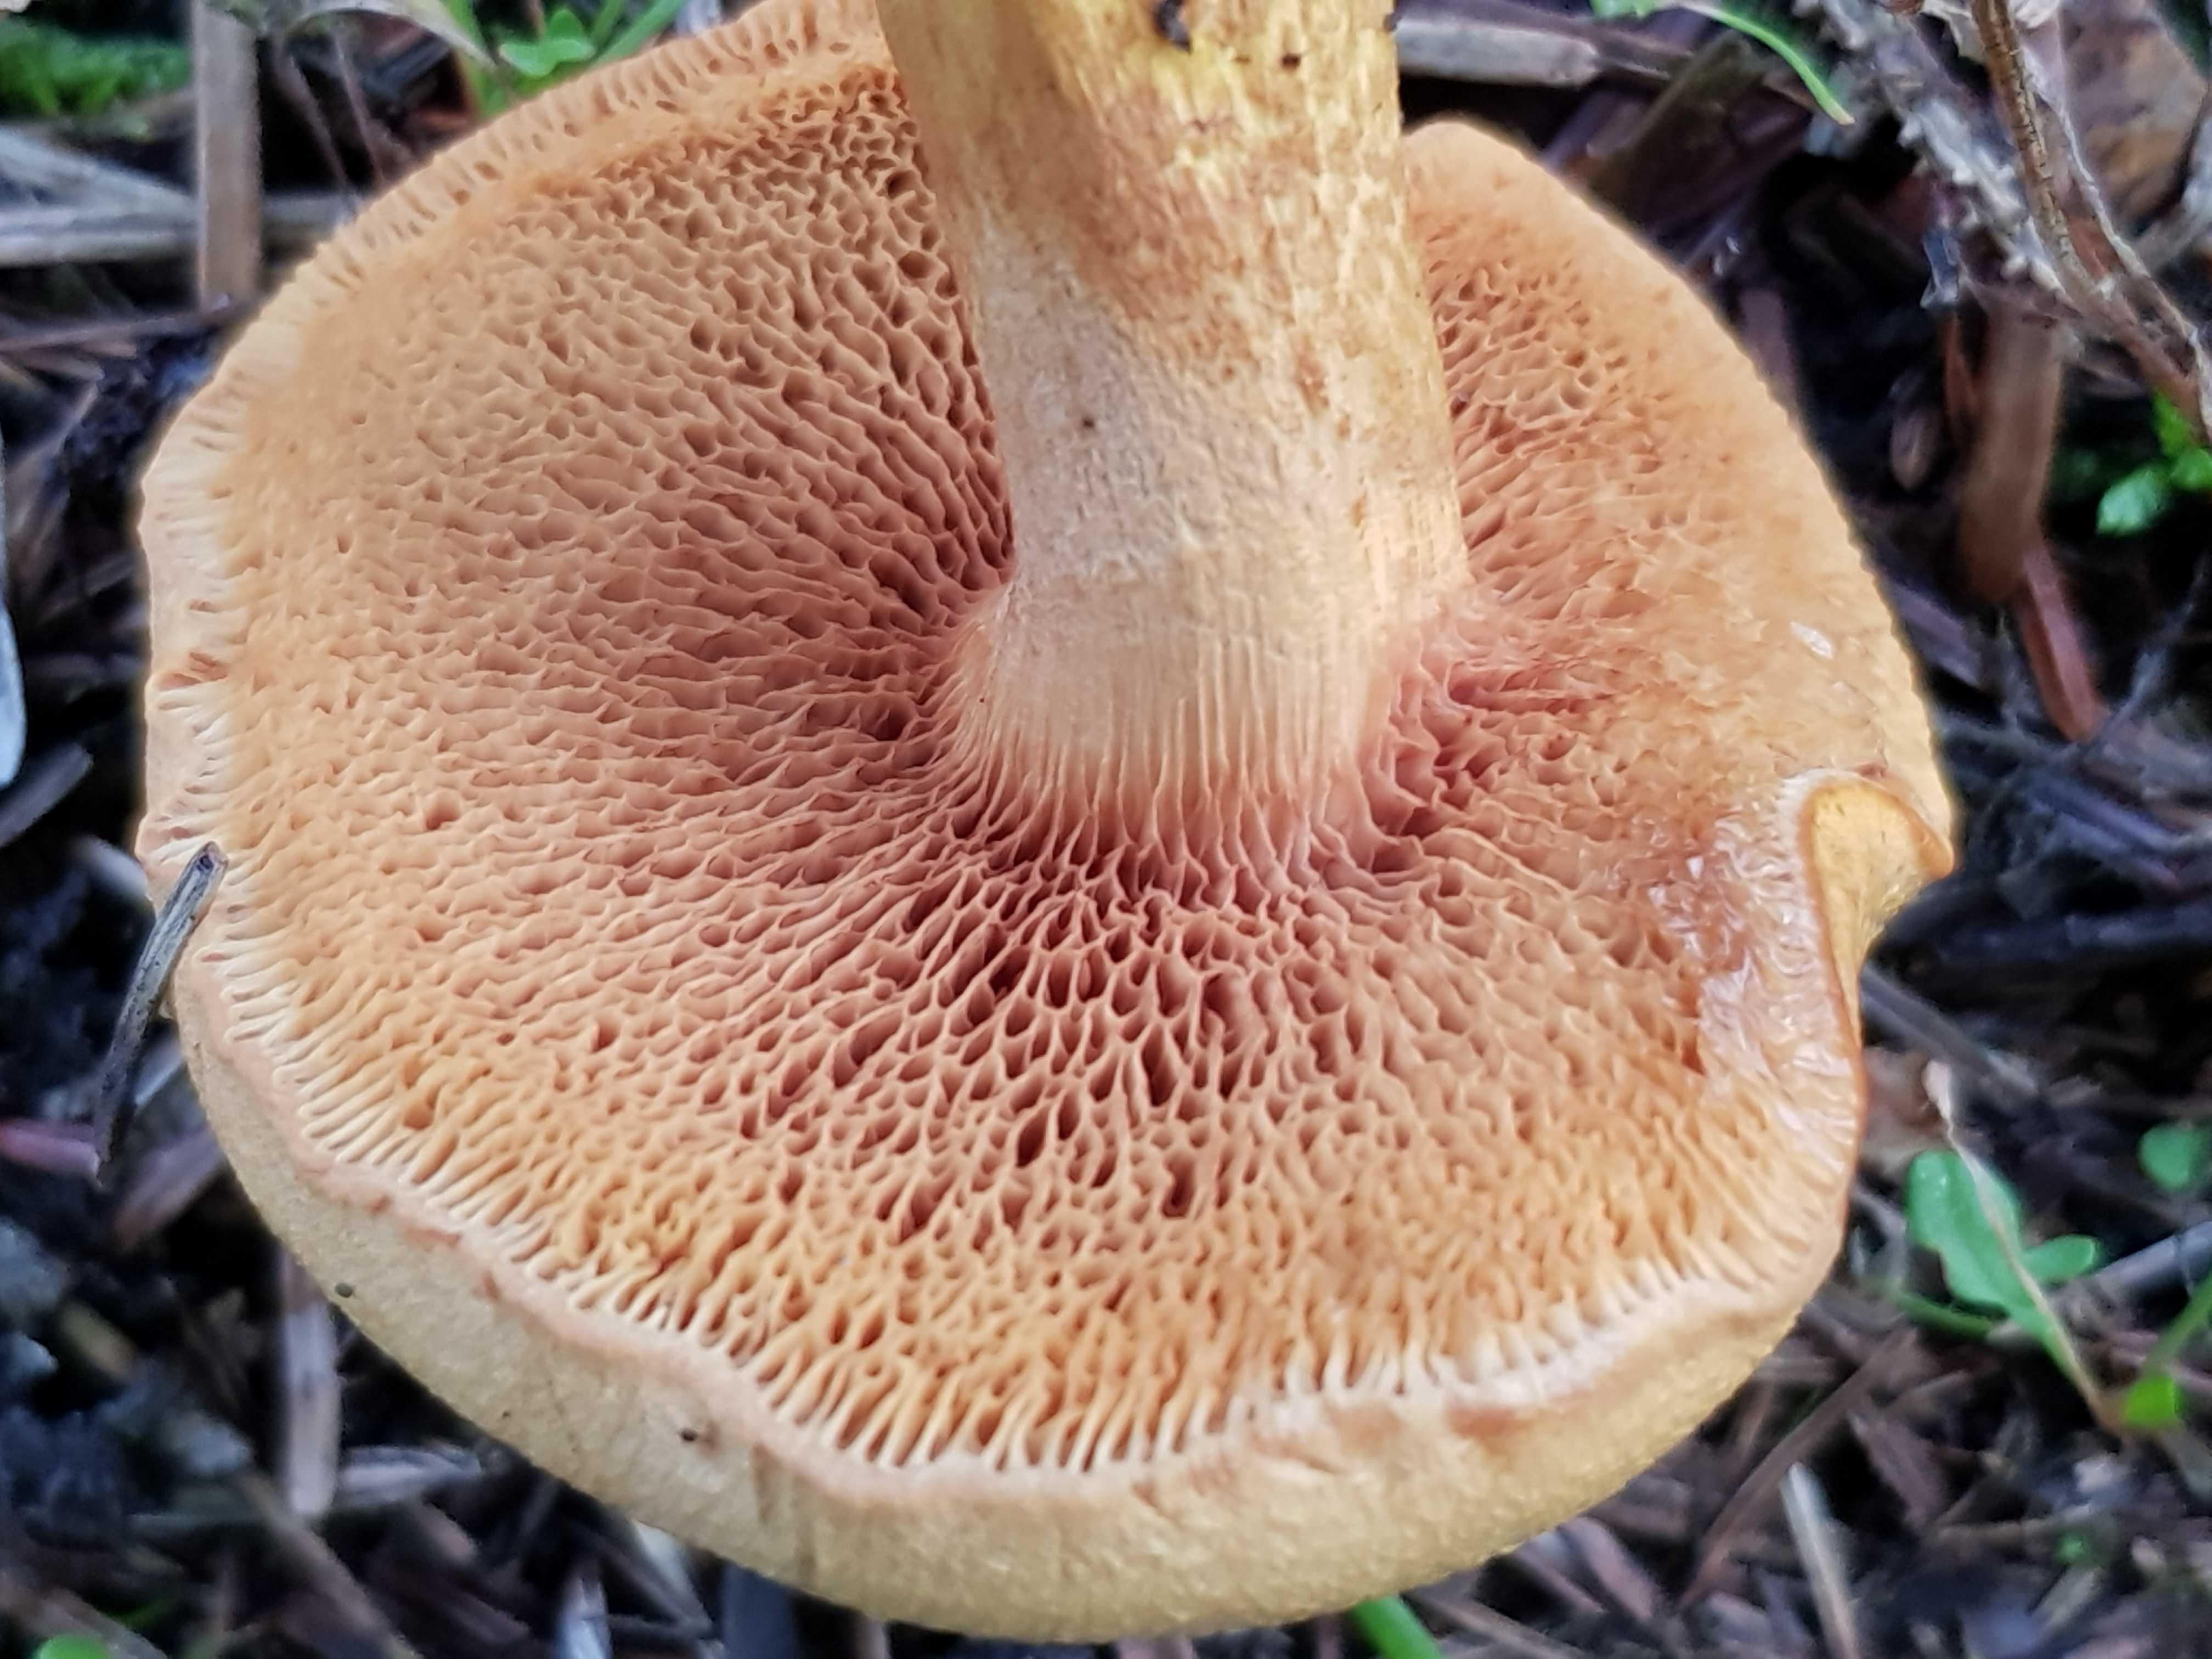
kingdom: Fungi
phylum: Basidiomycota
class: Agaricomycetes
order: Boletales
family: Boletaceae
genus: Chalciporus
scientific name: Chalciporus piperatus
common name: peberrørhat
